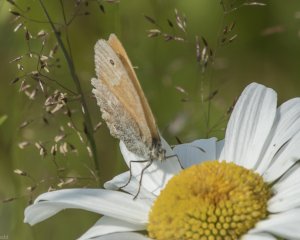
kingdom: Animalia
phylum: Arthropoda
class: Insecta
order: Lepidoptera
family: Nymphalidae
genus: Coenonympha
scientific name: Coenonympha tullia
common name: Large Heath
